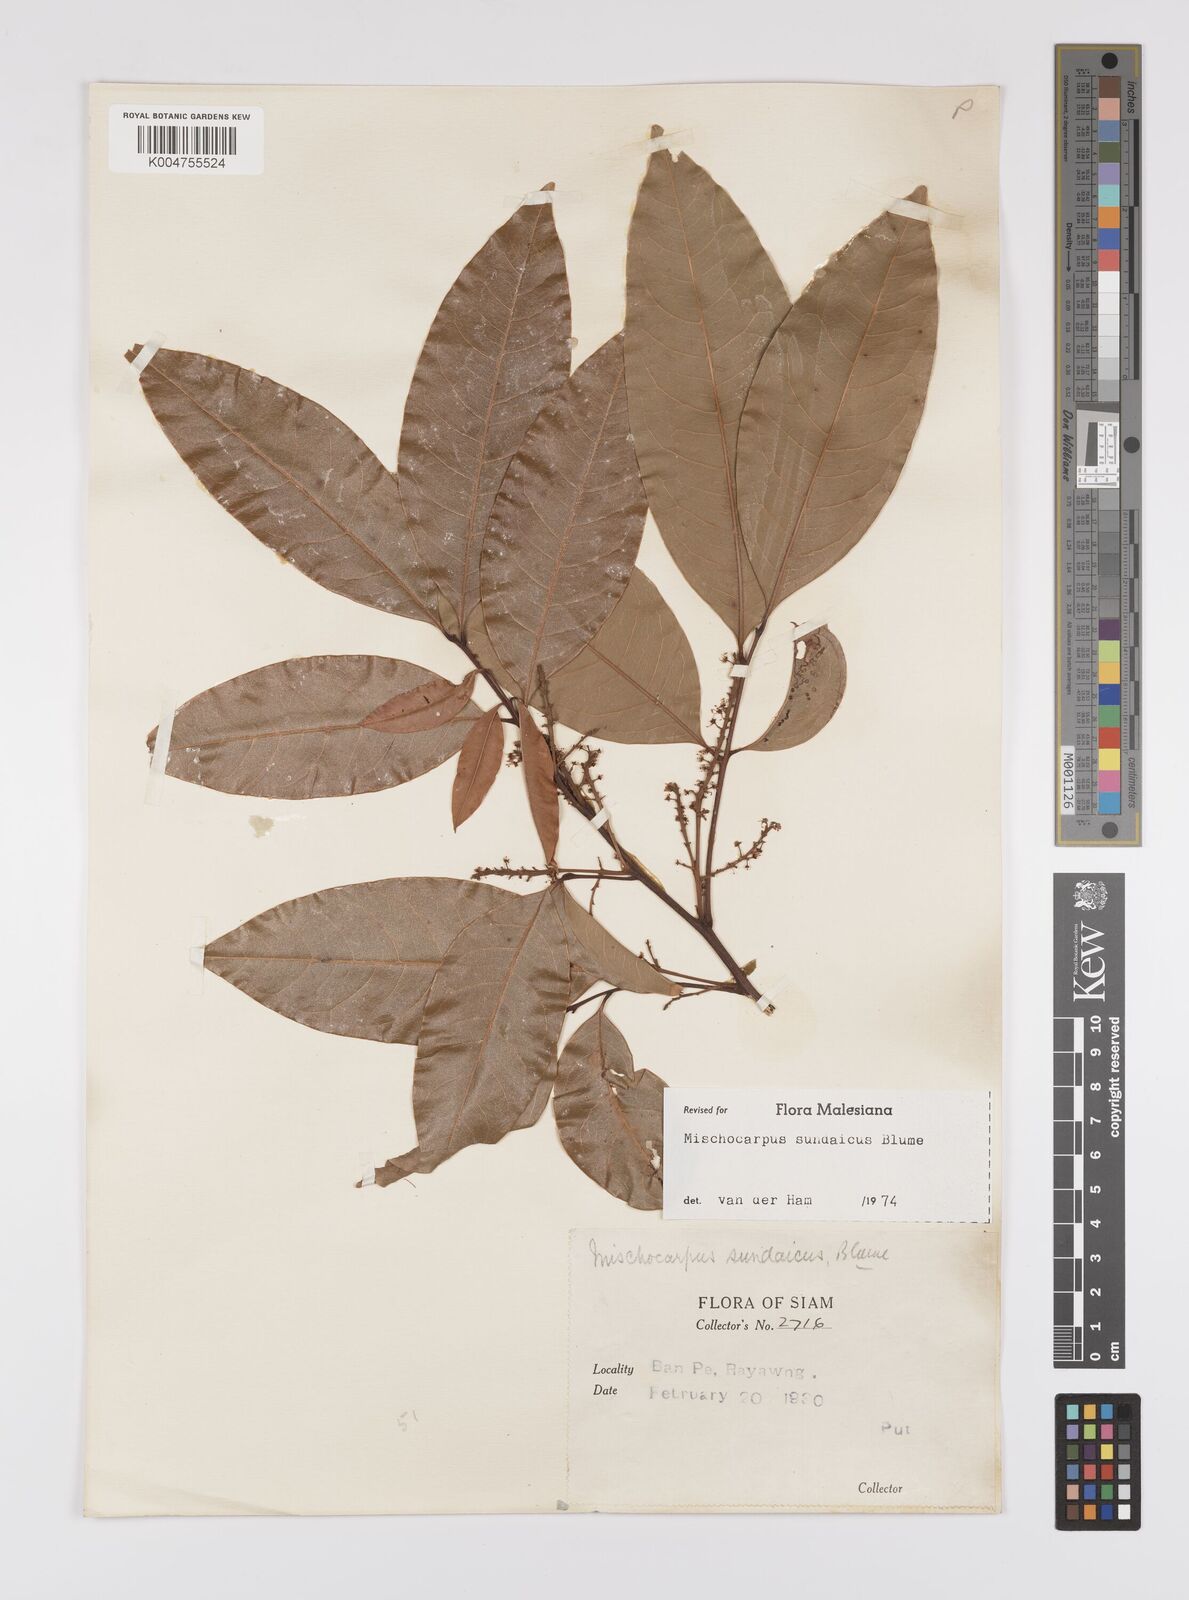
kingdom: Plantae
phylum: Tracheophyta
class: Magnoliopsida
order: Sapindales
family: Sapindaceae
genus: Mischocarpus
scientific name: Mischocarpus sundaicus
